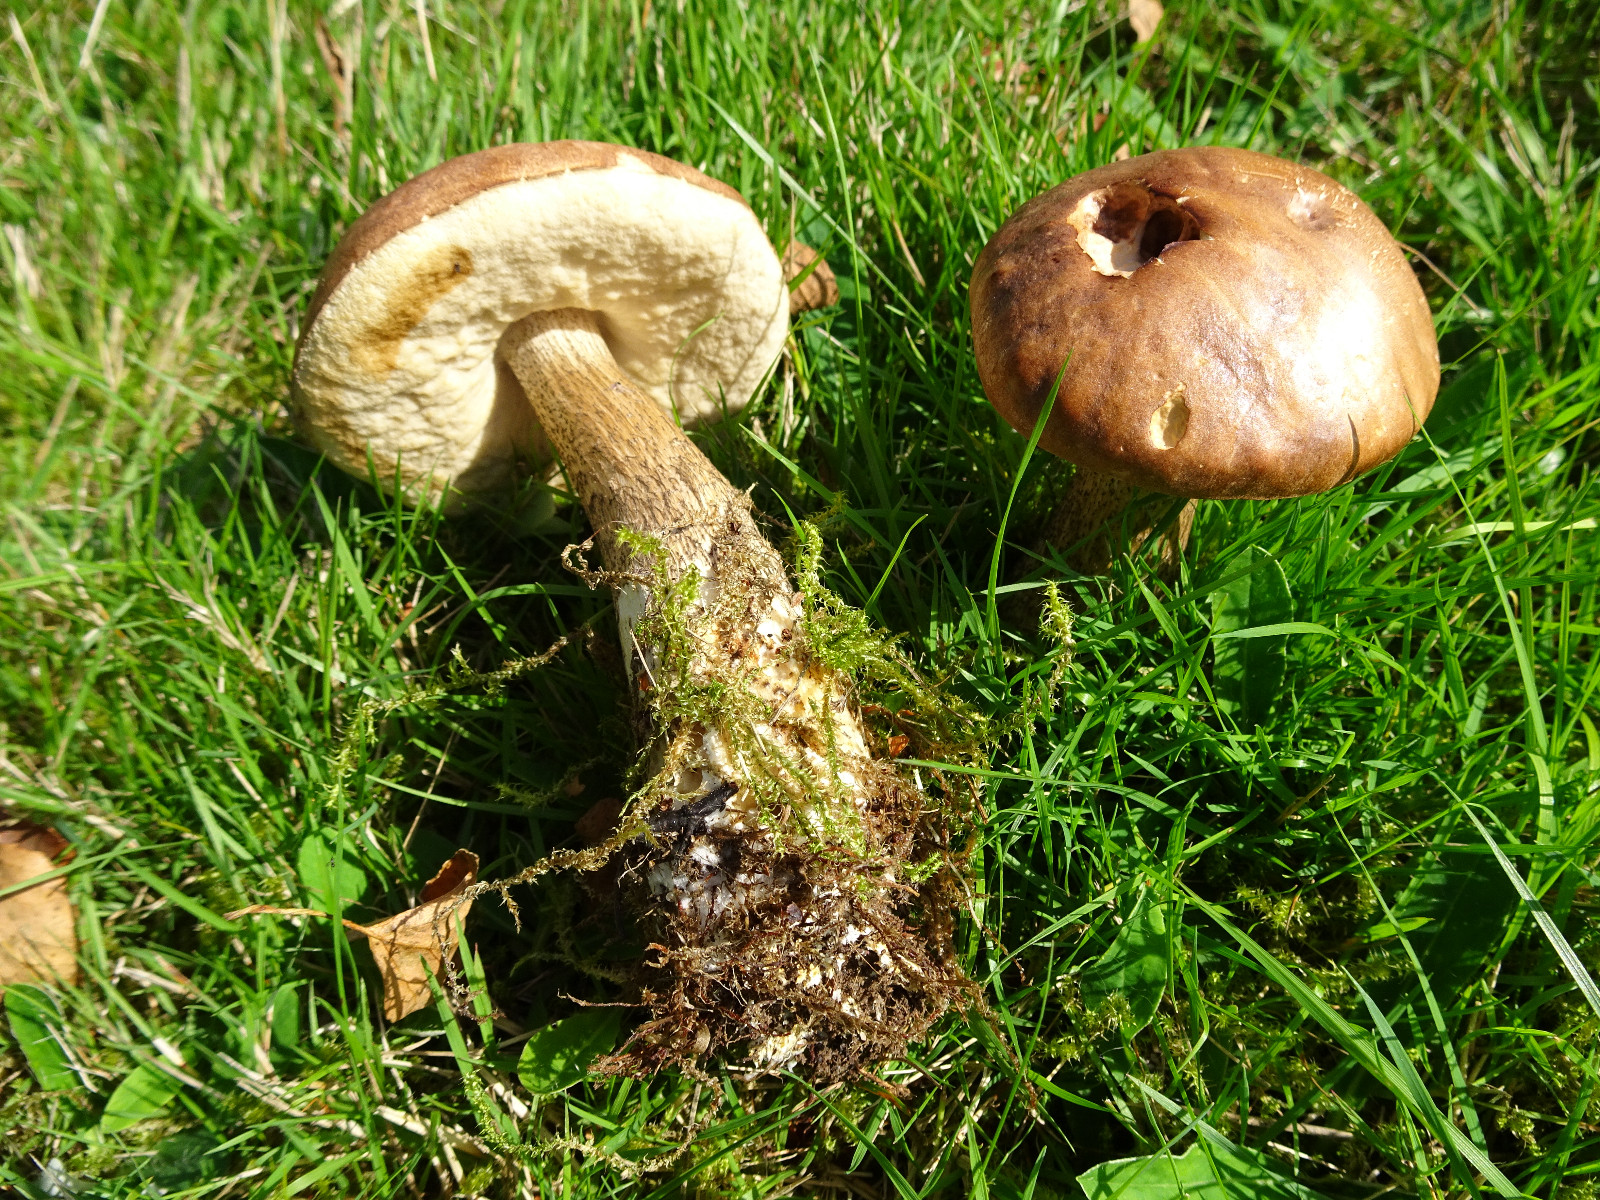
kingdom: Fungi
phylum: Basidiomycota
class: Agaricomycetes
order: Boletales
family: Boletaceae
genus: Leccinum
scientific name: Leccinum scabrum
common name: brun skælrørhat
